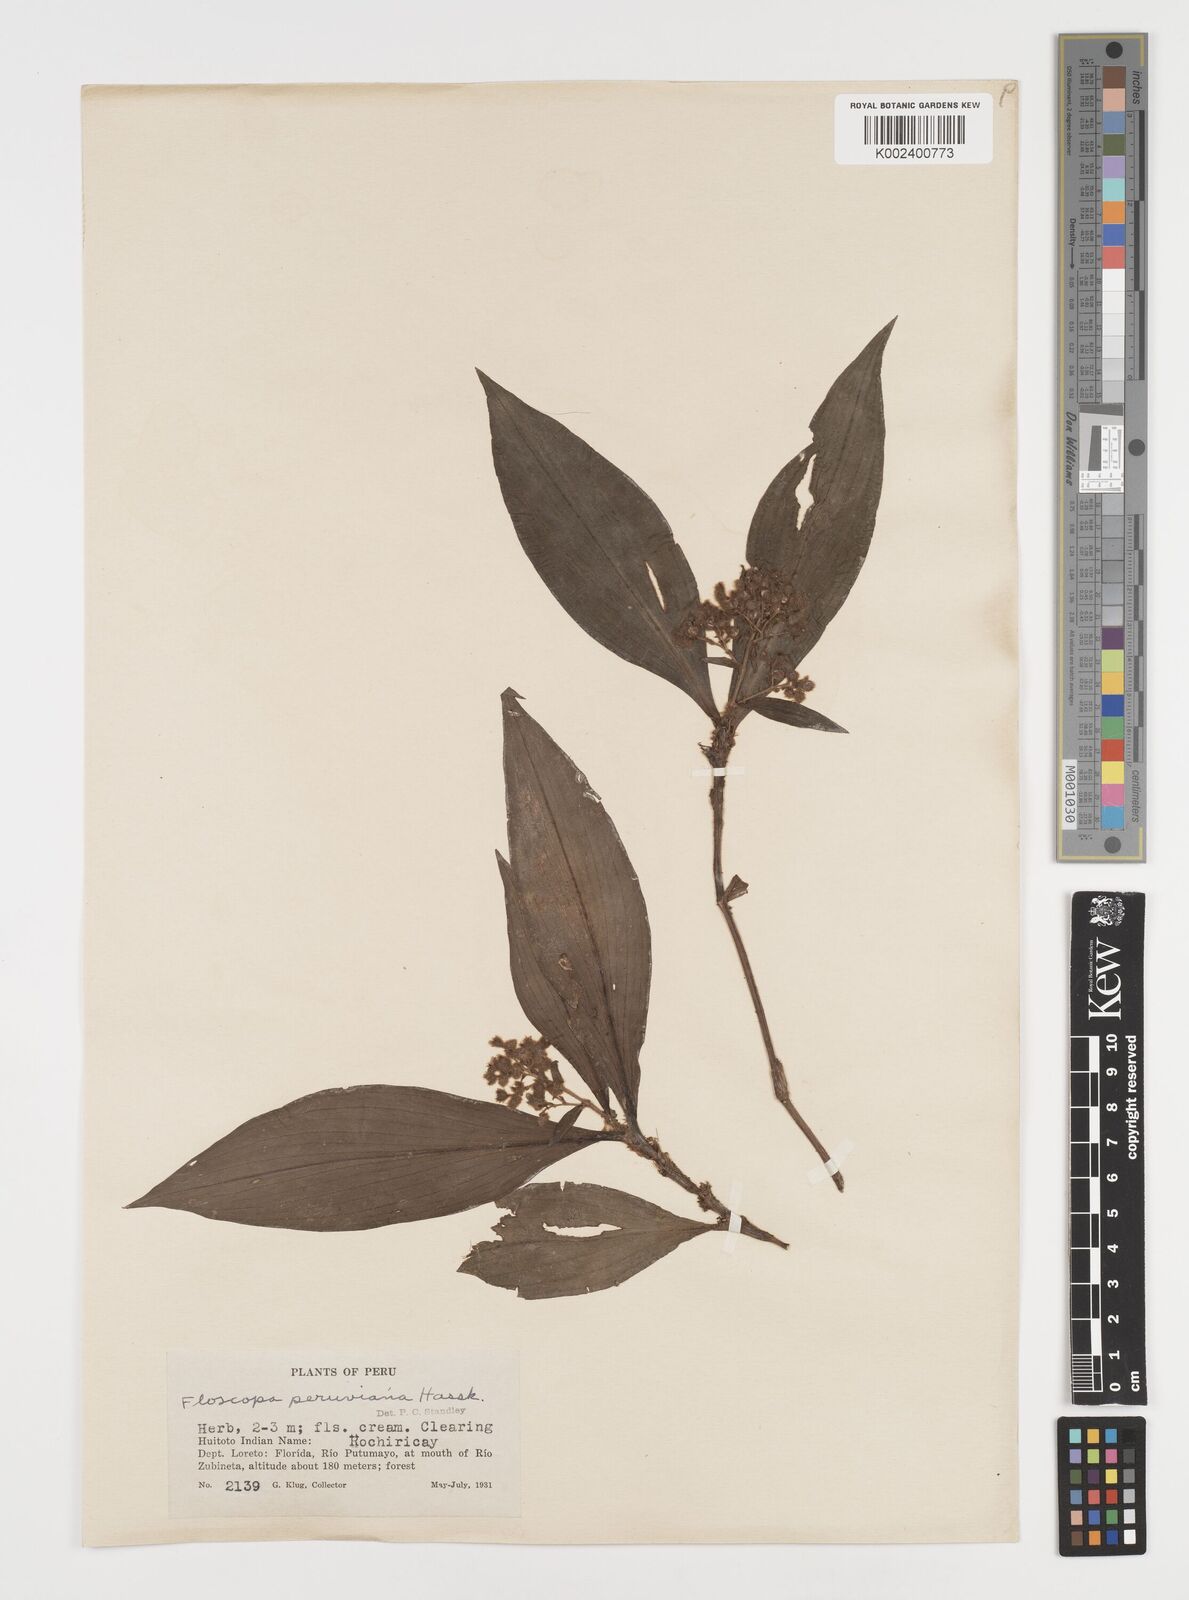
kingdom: Plantae
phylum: Tracheophyta
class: Liliopsida
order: Commelinales
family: Commelinaceae
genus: Floscopa
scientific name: Floscopa peruviana
